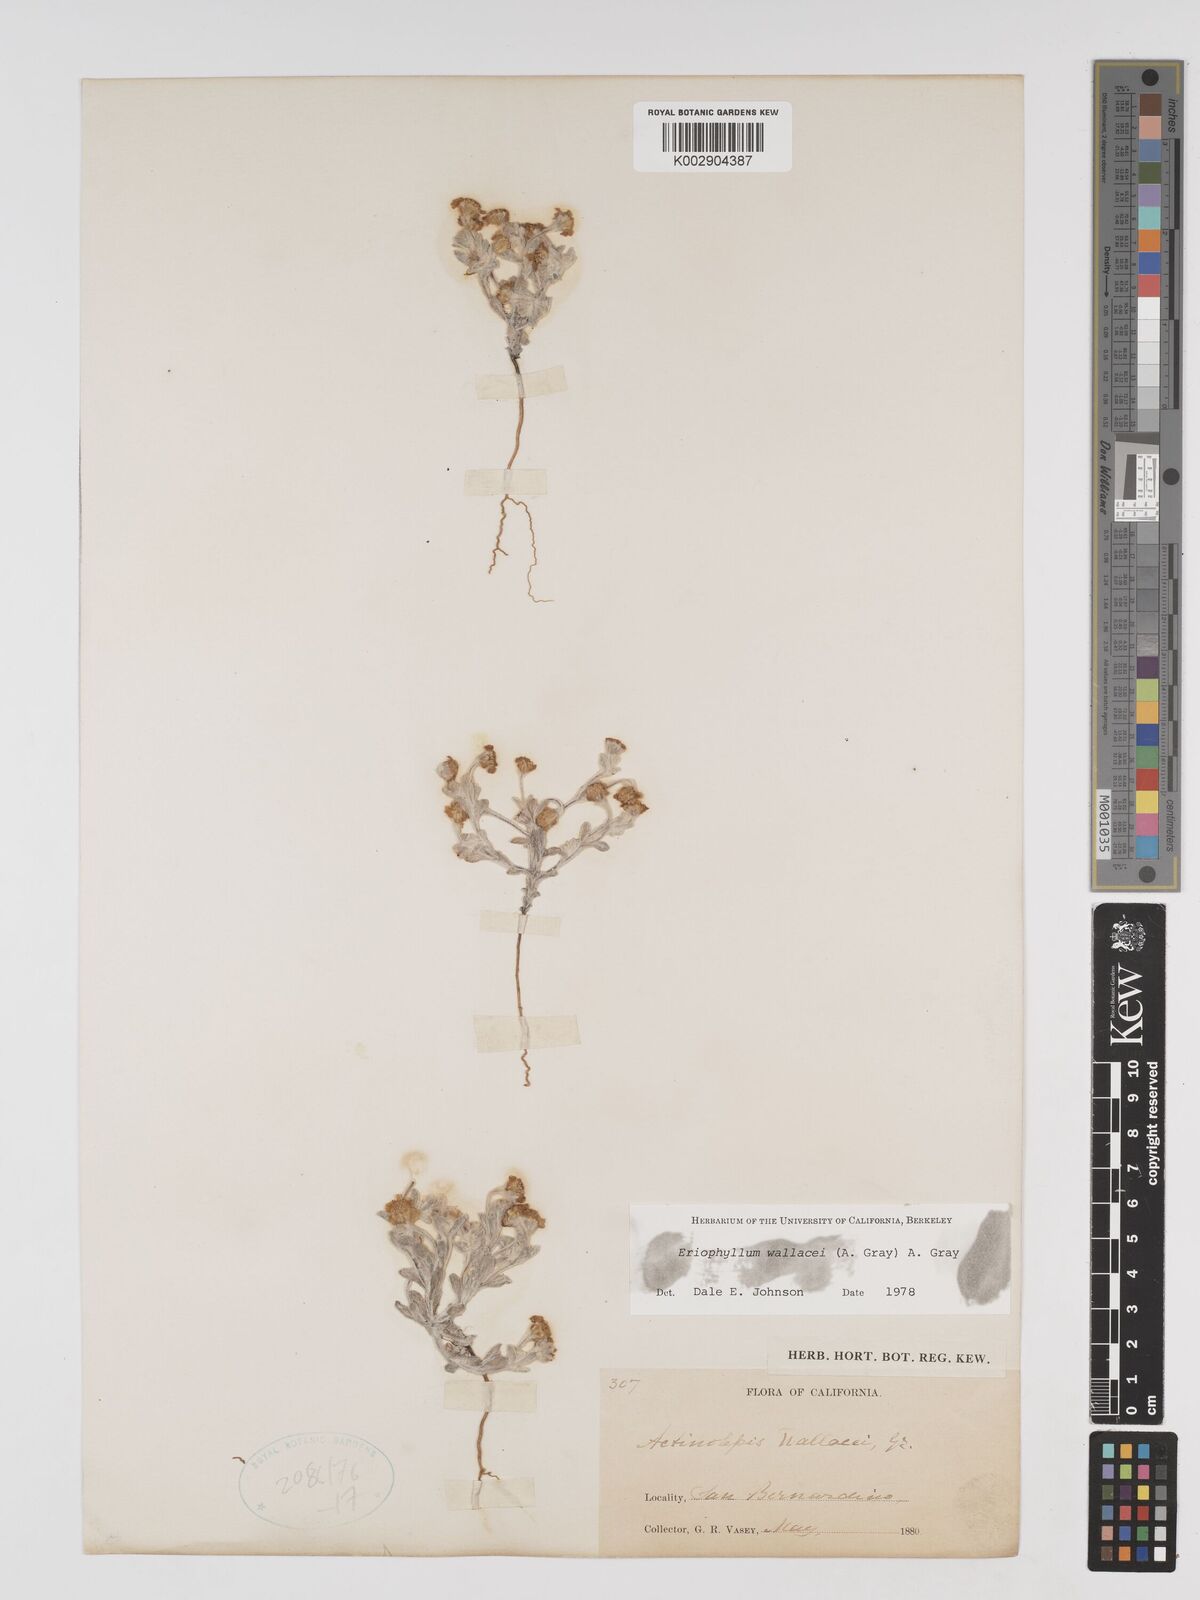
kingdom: Plantae
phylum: Tracheophyta
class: Magnoliopsida
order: Asterales
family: Asteraceae
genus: Eriophyllum
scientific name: Eriophyllum wallacei
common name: Wallace's woolly daisy
